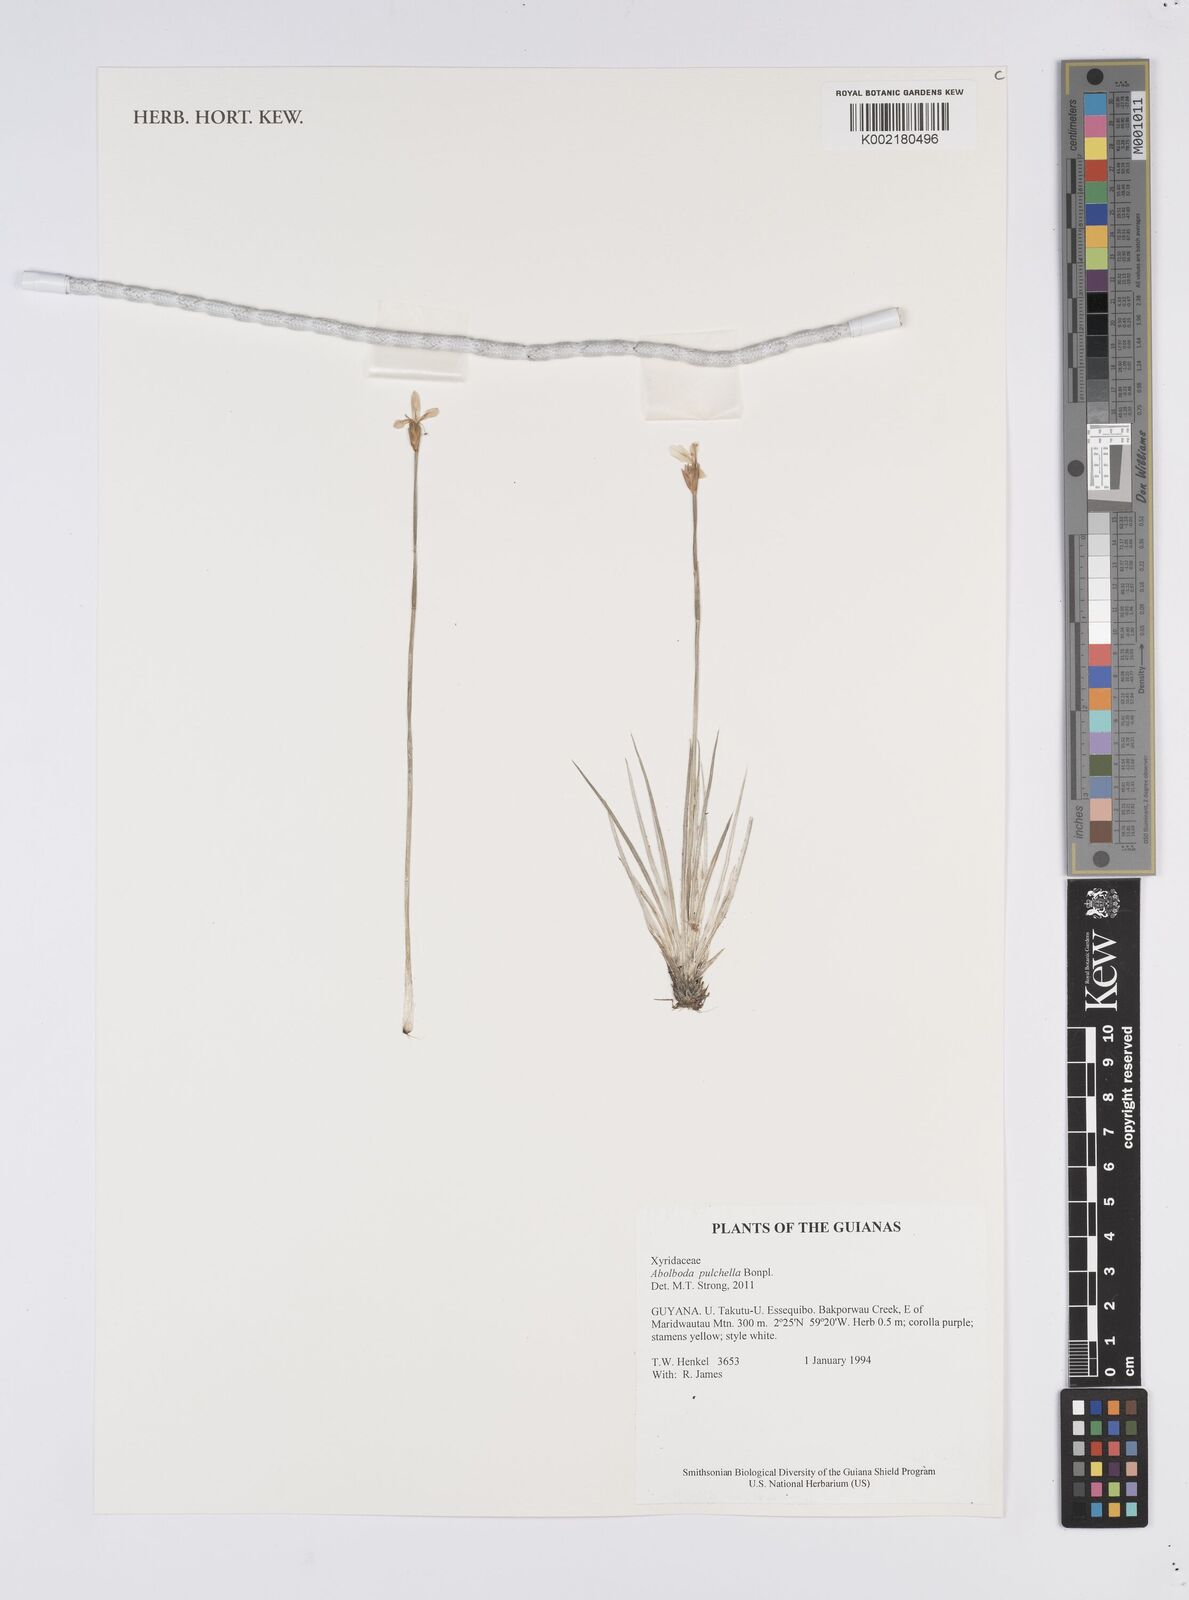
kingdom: Plantae
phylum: Tracheophyta
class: Liliopsida
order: Poales
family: Xyridaceae
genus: Abolboda
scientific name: Abolboda pulchella
